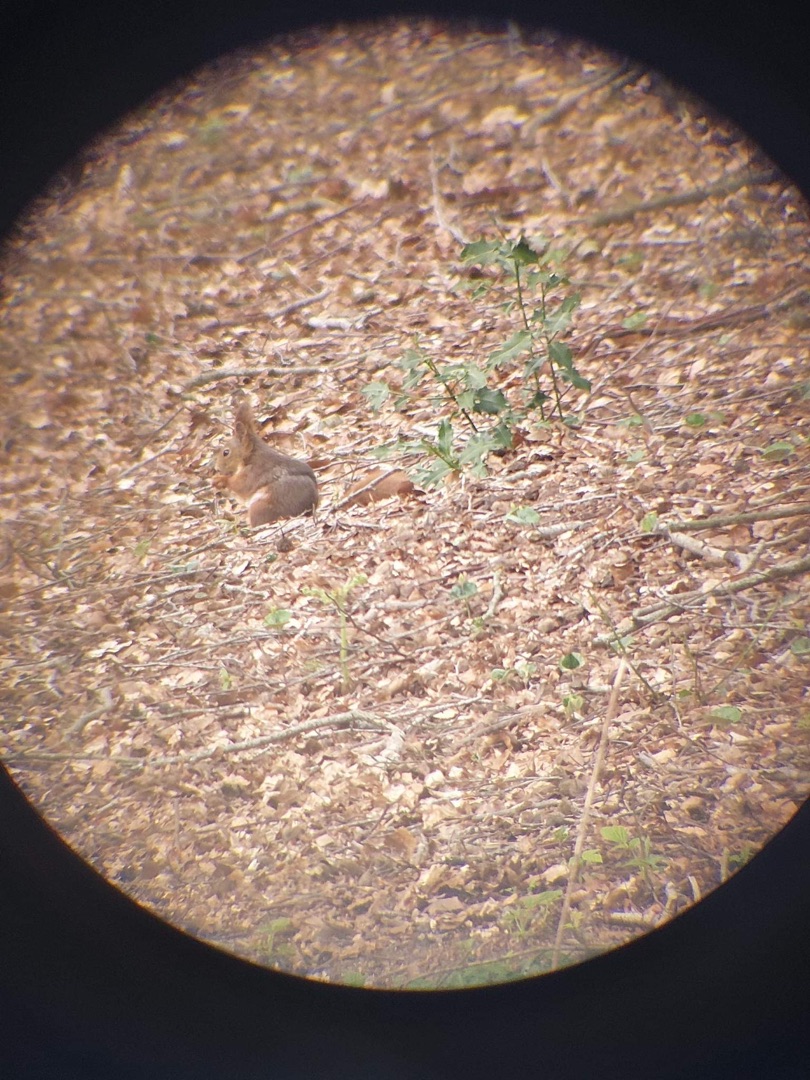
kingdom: Animalia
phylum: Chordata
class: Mammalia
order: Rodentia
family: Sciuridae
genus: Sciurus
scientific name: Sciurus vulgaris
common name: Egern
